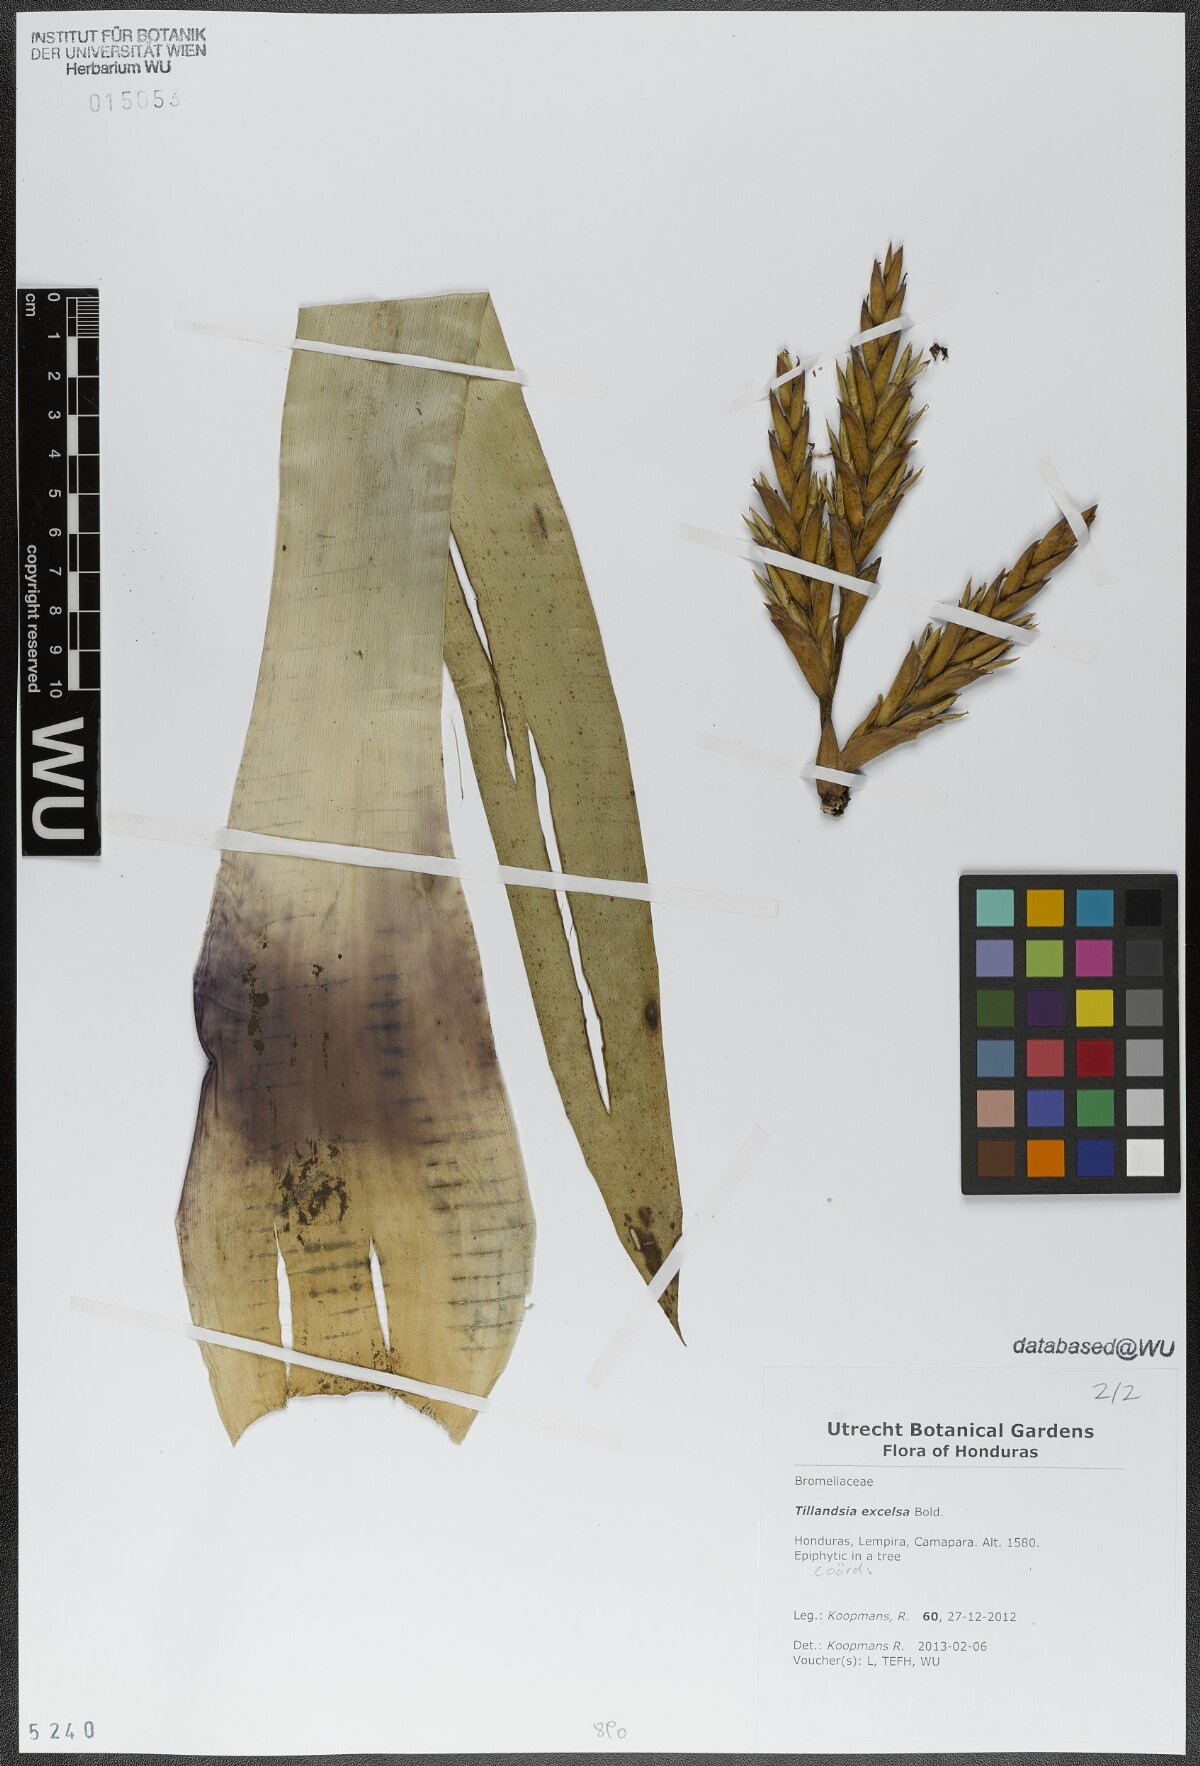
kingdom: Plantae
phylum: Tracheophyta
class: Liliopsida
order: Poales
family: Bromeliaceae
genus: Tillandsia
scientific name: Tillandsia excelsa
